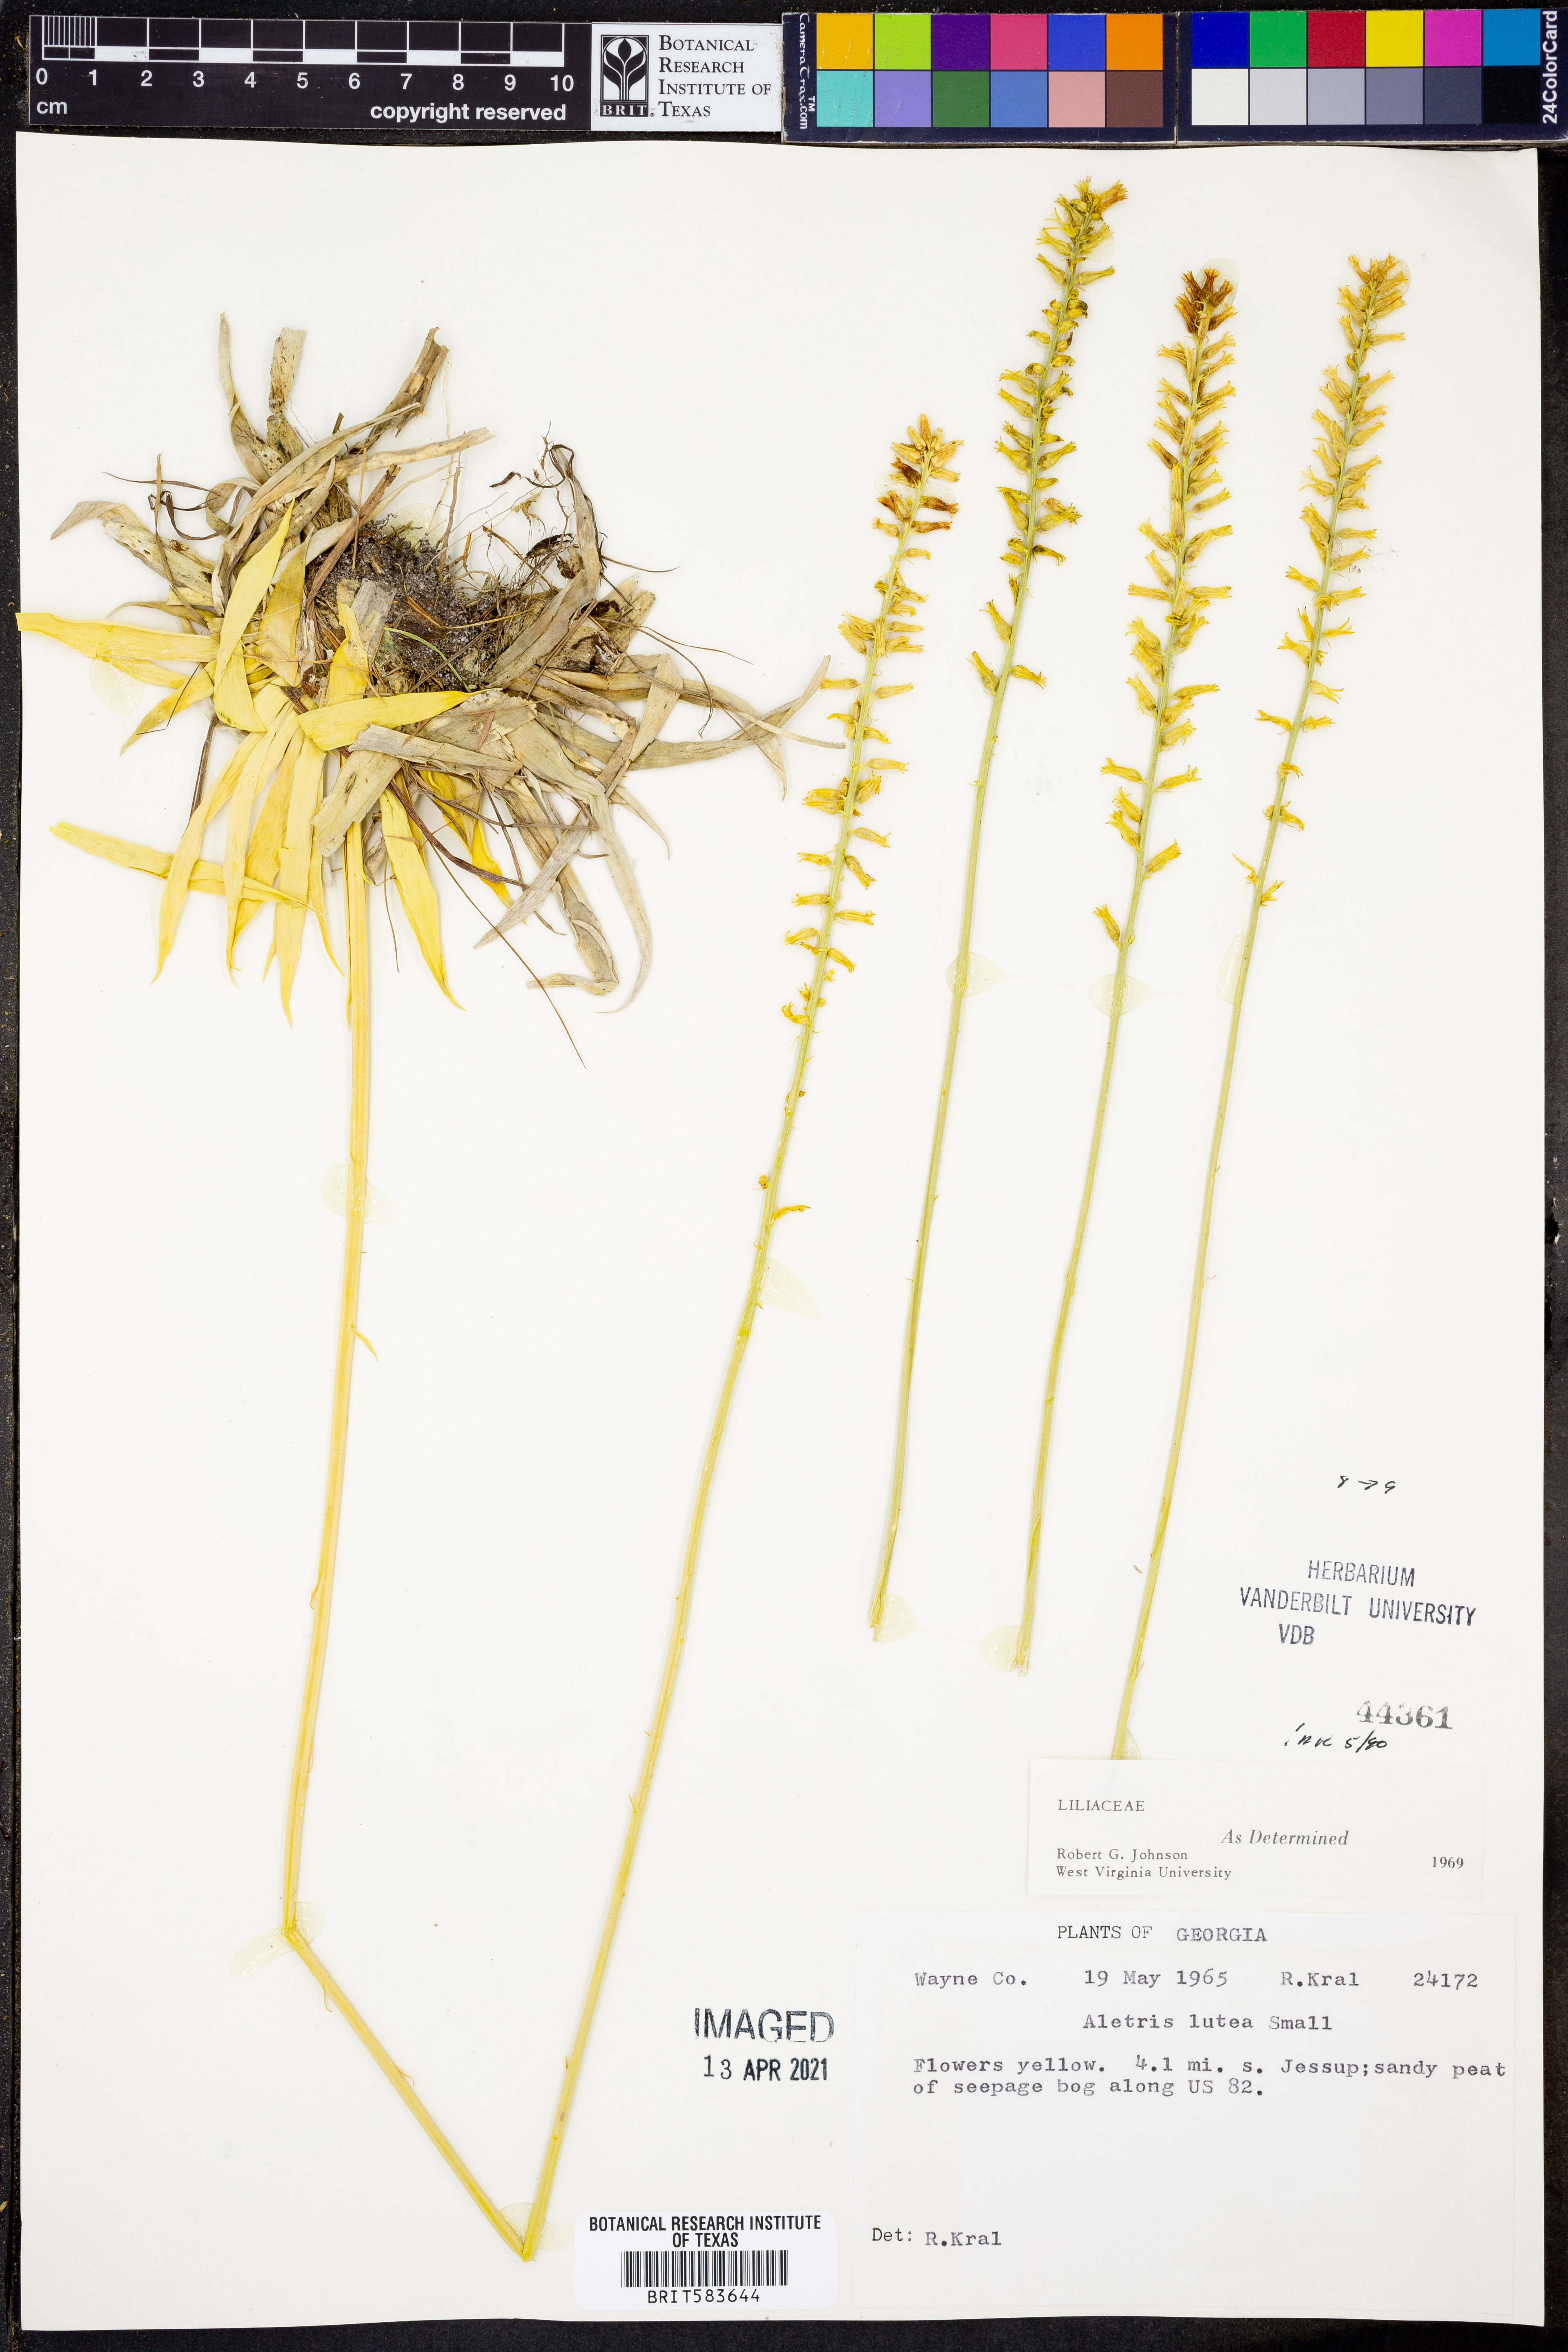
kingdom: Plantae
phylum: Tracheophyta
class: Liliopsida
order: Dioscoreales
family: Nartheciaceae
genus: Aletris
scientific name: Aletris lutea
